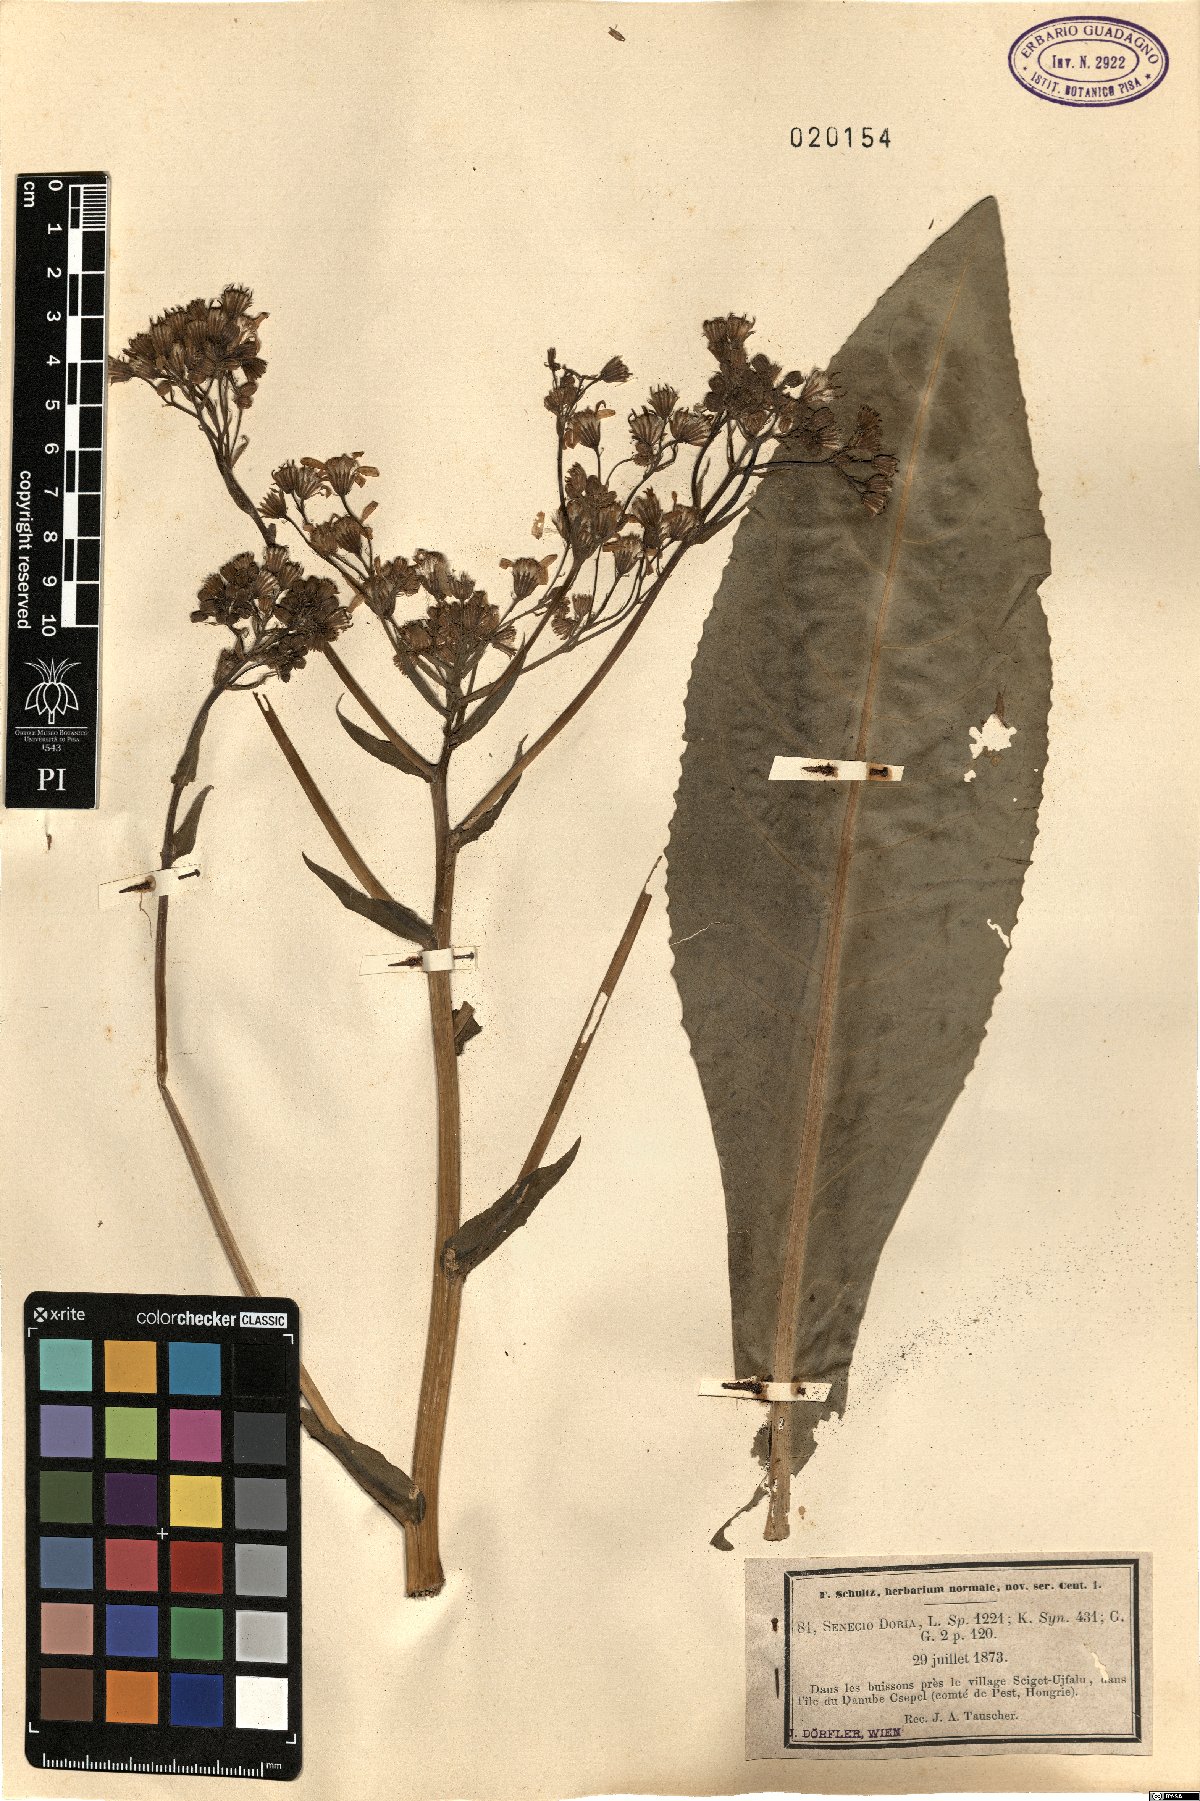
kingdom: Plantae
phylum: Tracheophyta
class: Magnoliopsida
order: Asterales
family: Asteraceae
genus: Senecio
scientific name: Senecio doria
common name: Golden ragwort
